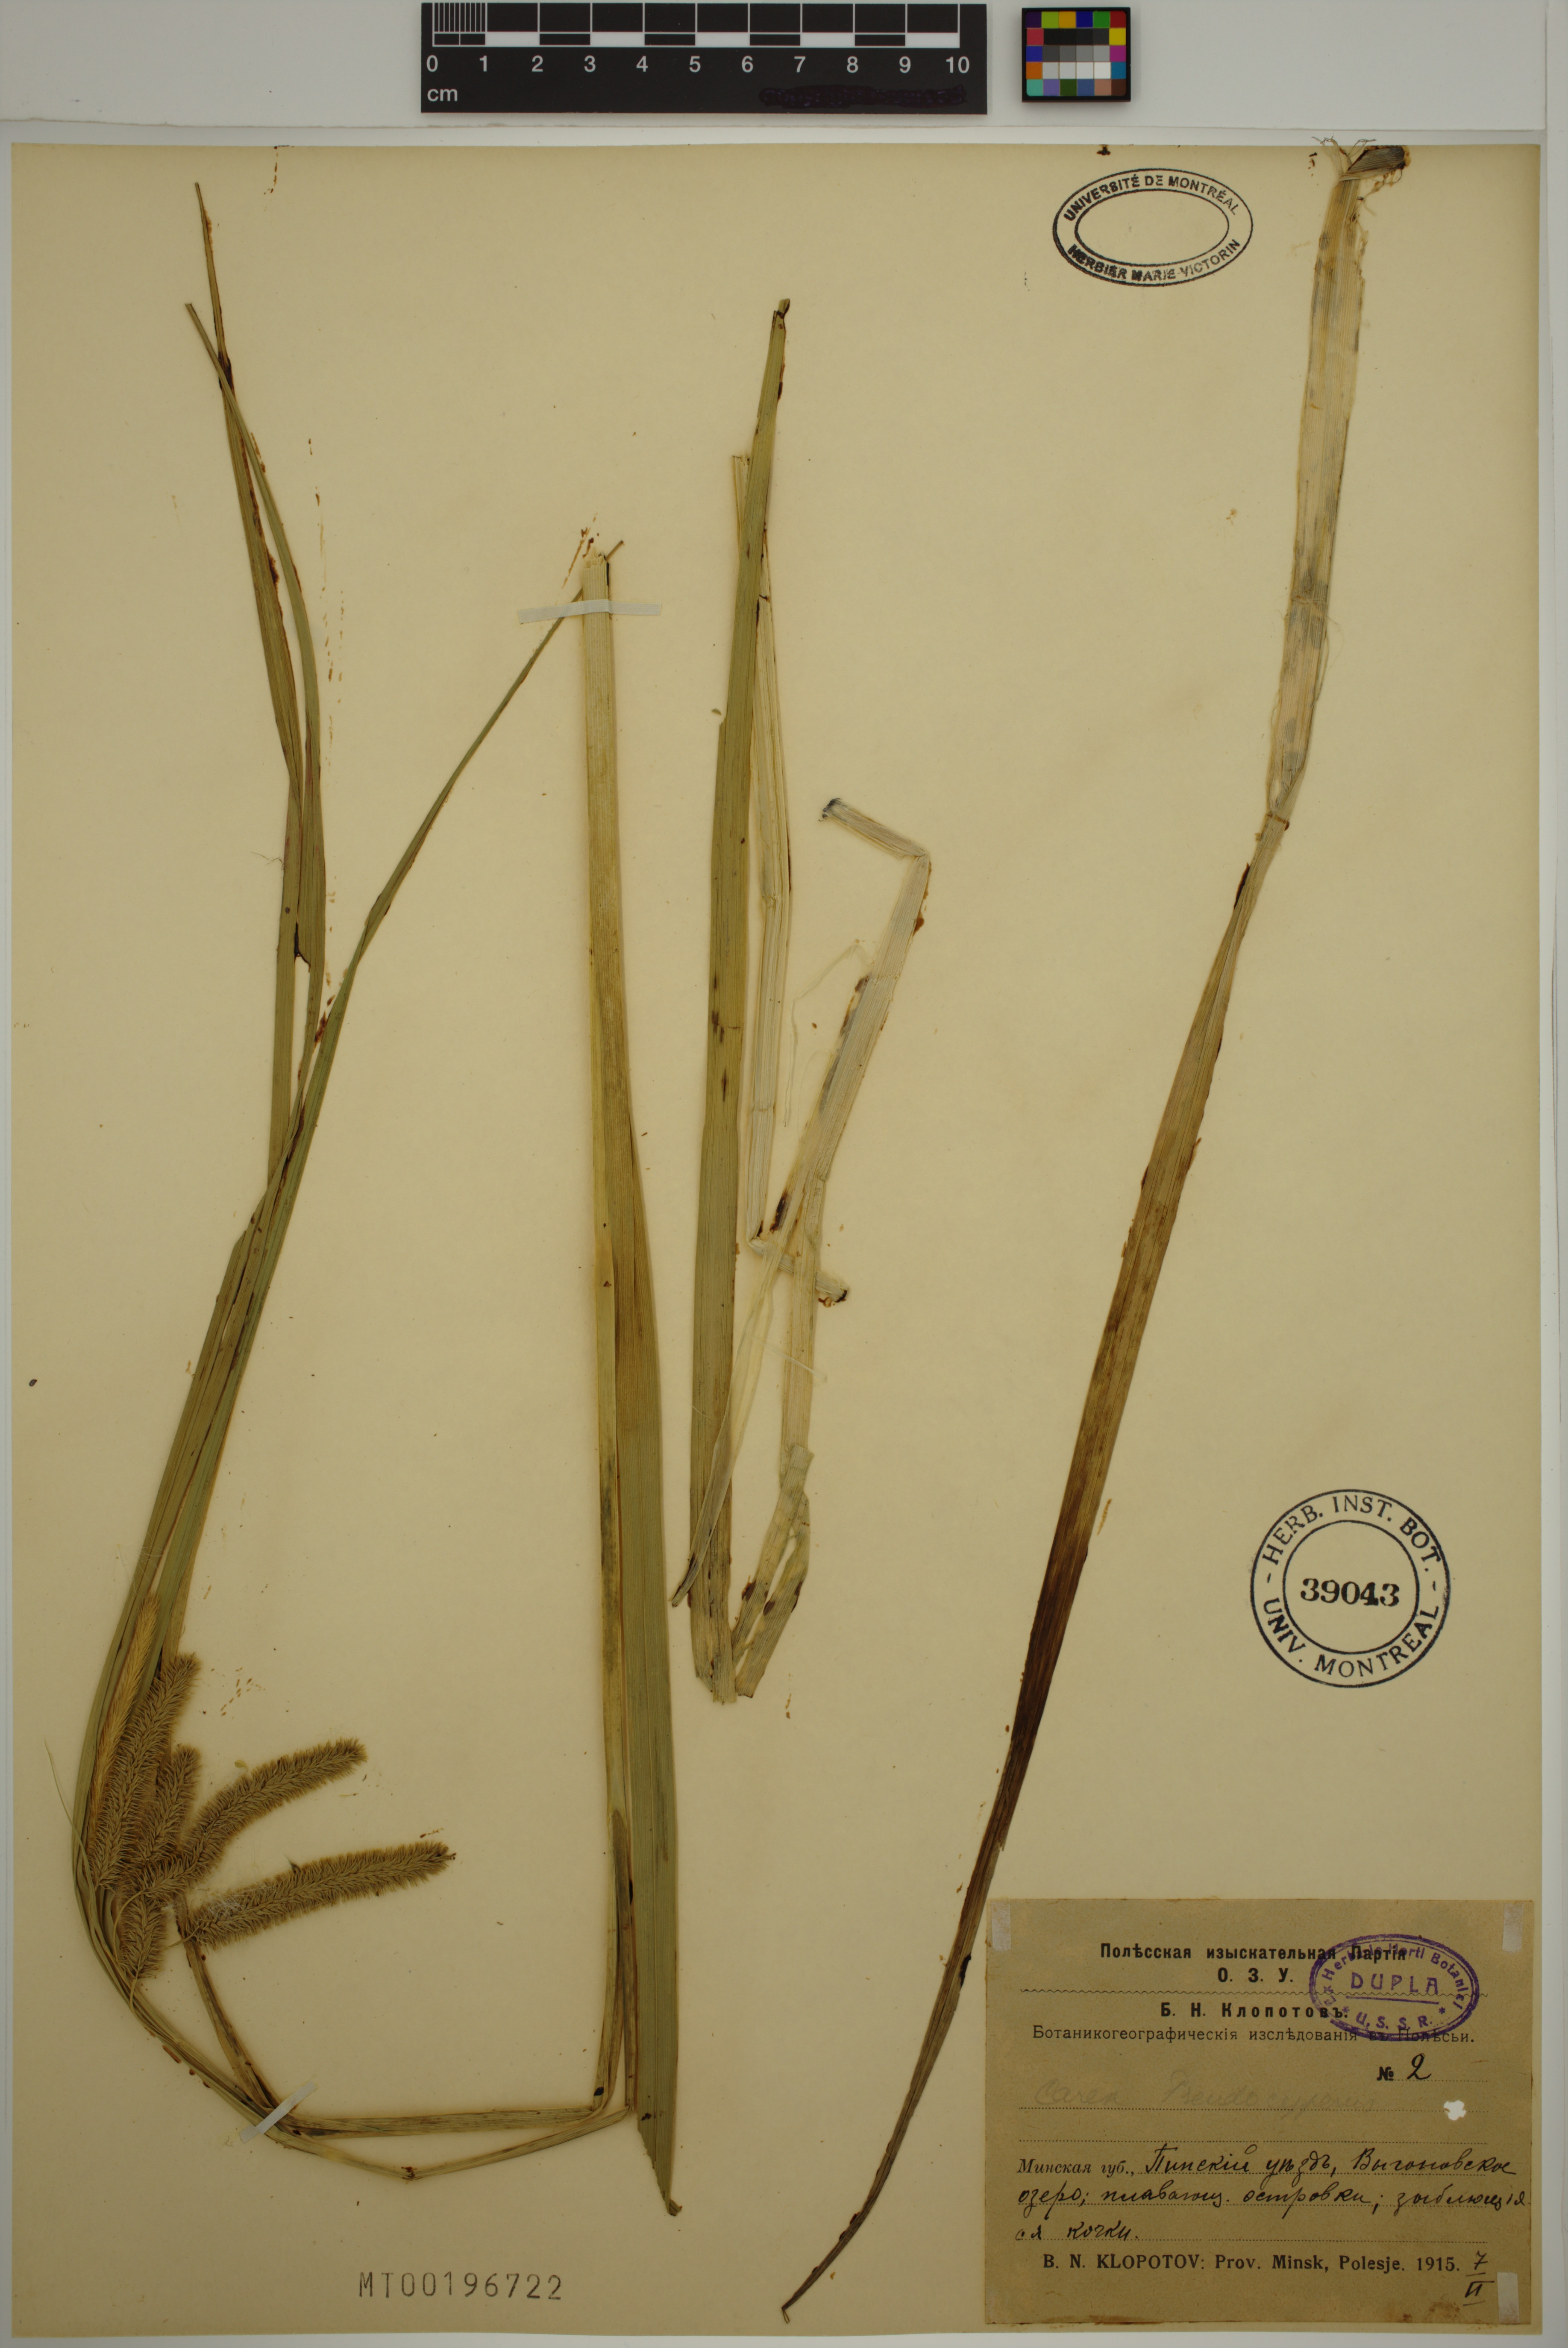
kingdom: Plantae
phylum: Tracheophyta
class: Liliopsida
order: Poales
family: Cyperaceae
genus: Carex
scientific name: Carex pseudocyperus
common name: Cyperus sedge
